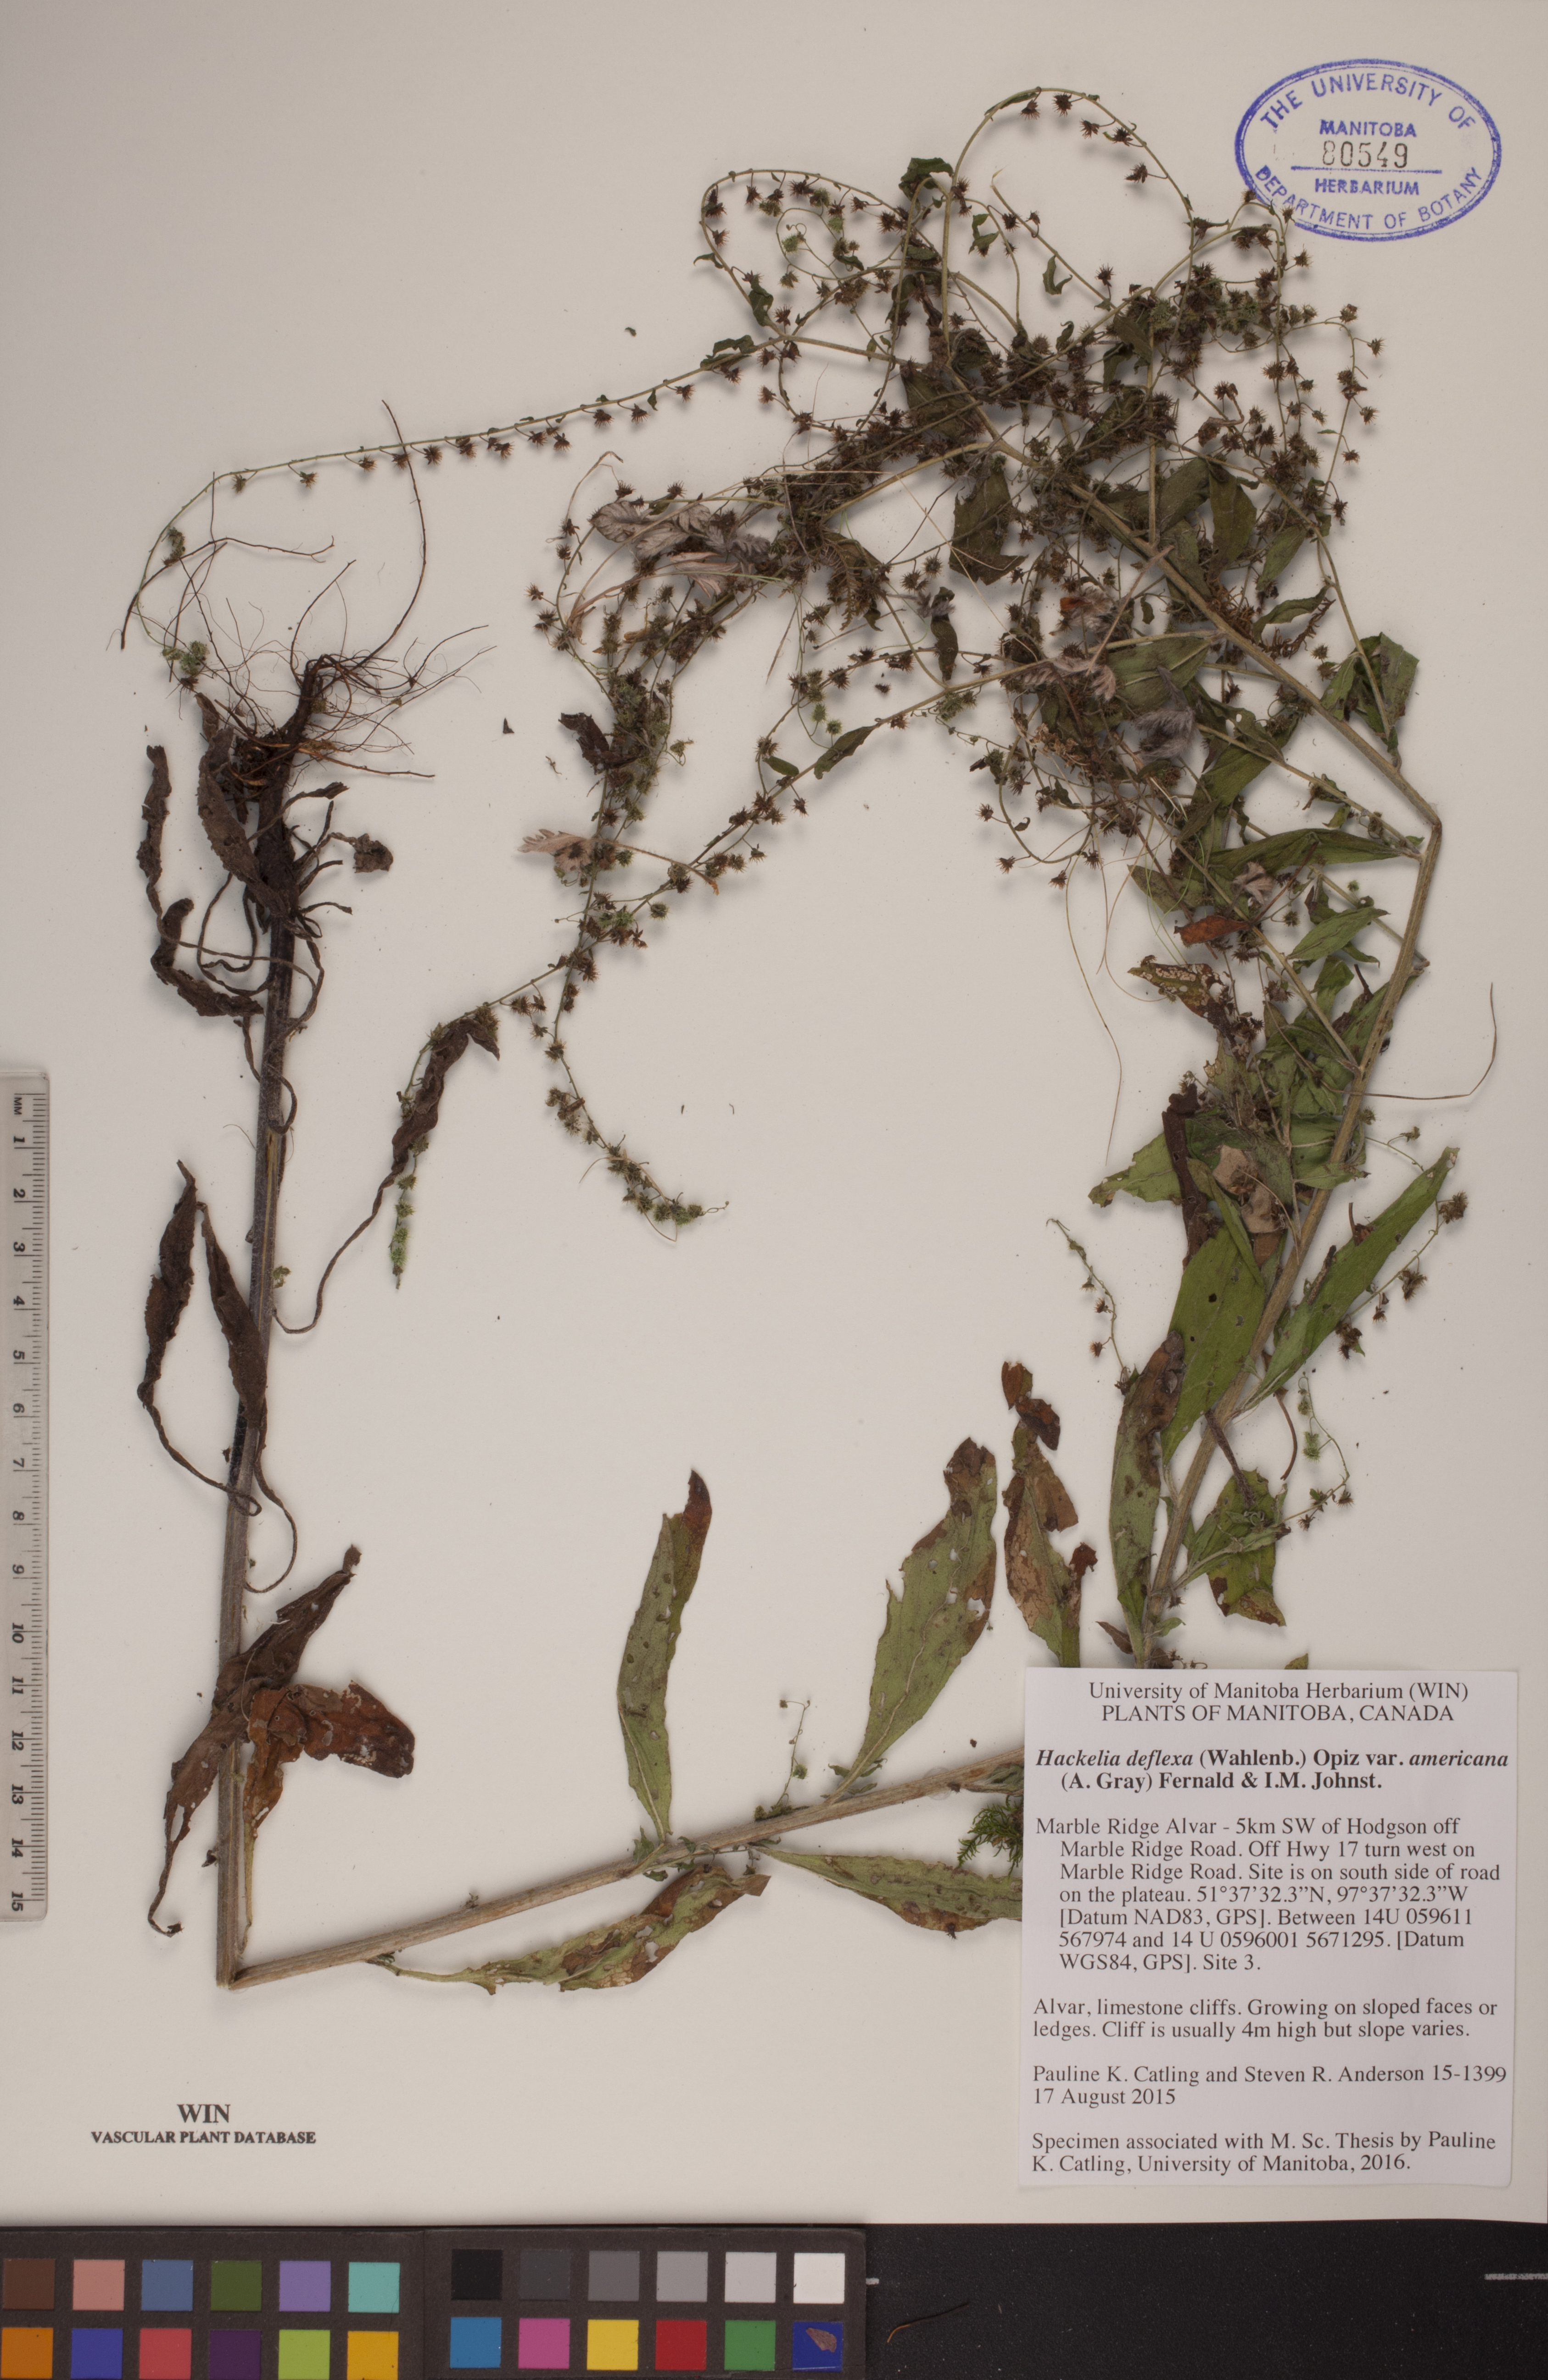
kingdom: Plantae
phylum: Tracheophyta
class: Magnoliopsida
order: Boraginales
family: Boraginaceae
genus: Hackelia
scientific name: Hackelia deflexa
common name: Nodding stickseed
